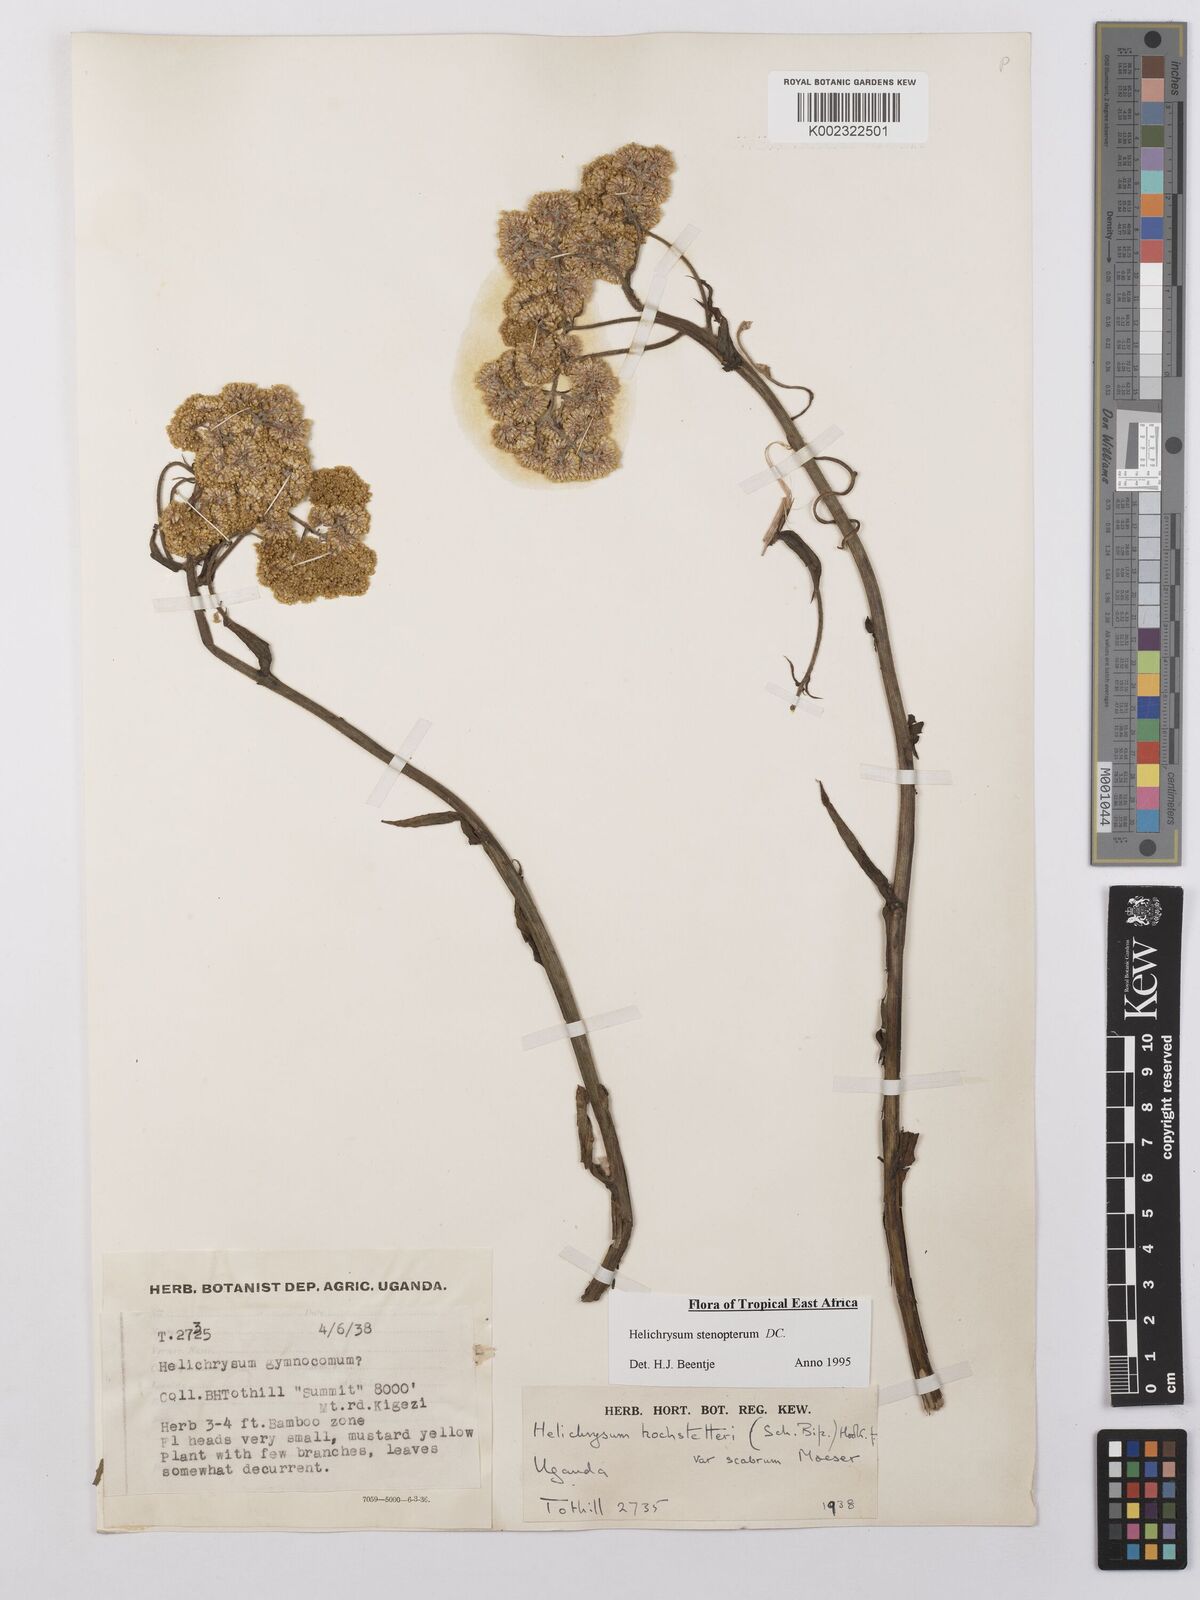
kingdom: Plantae
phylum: Tracheophyta
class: Magnoliopsida
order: Asterales
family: Asteraceae
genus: Helichrysum
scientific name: Helichrysum stenopterum
